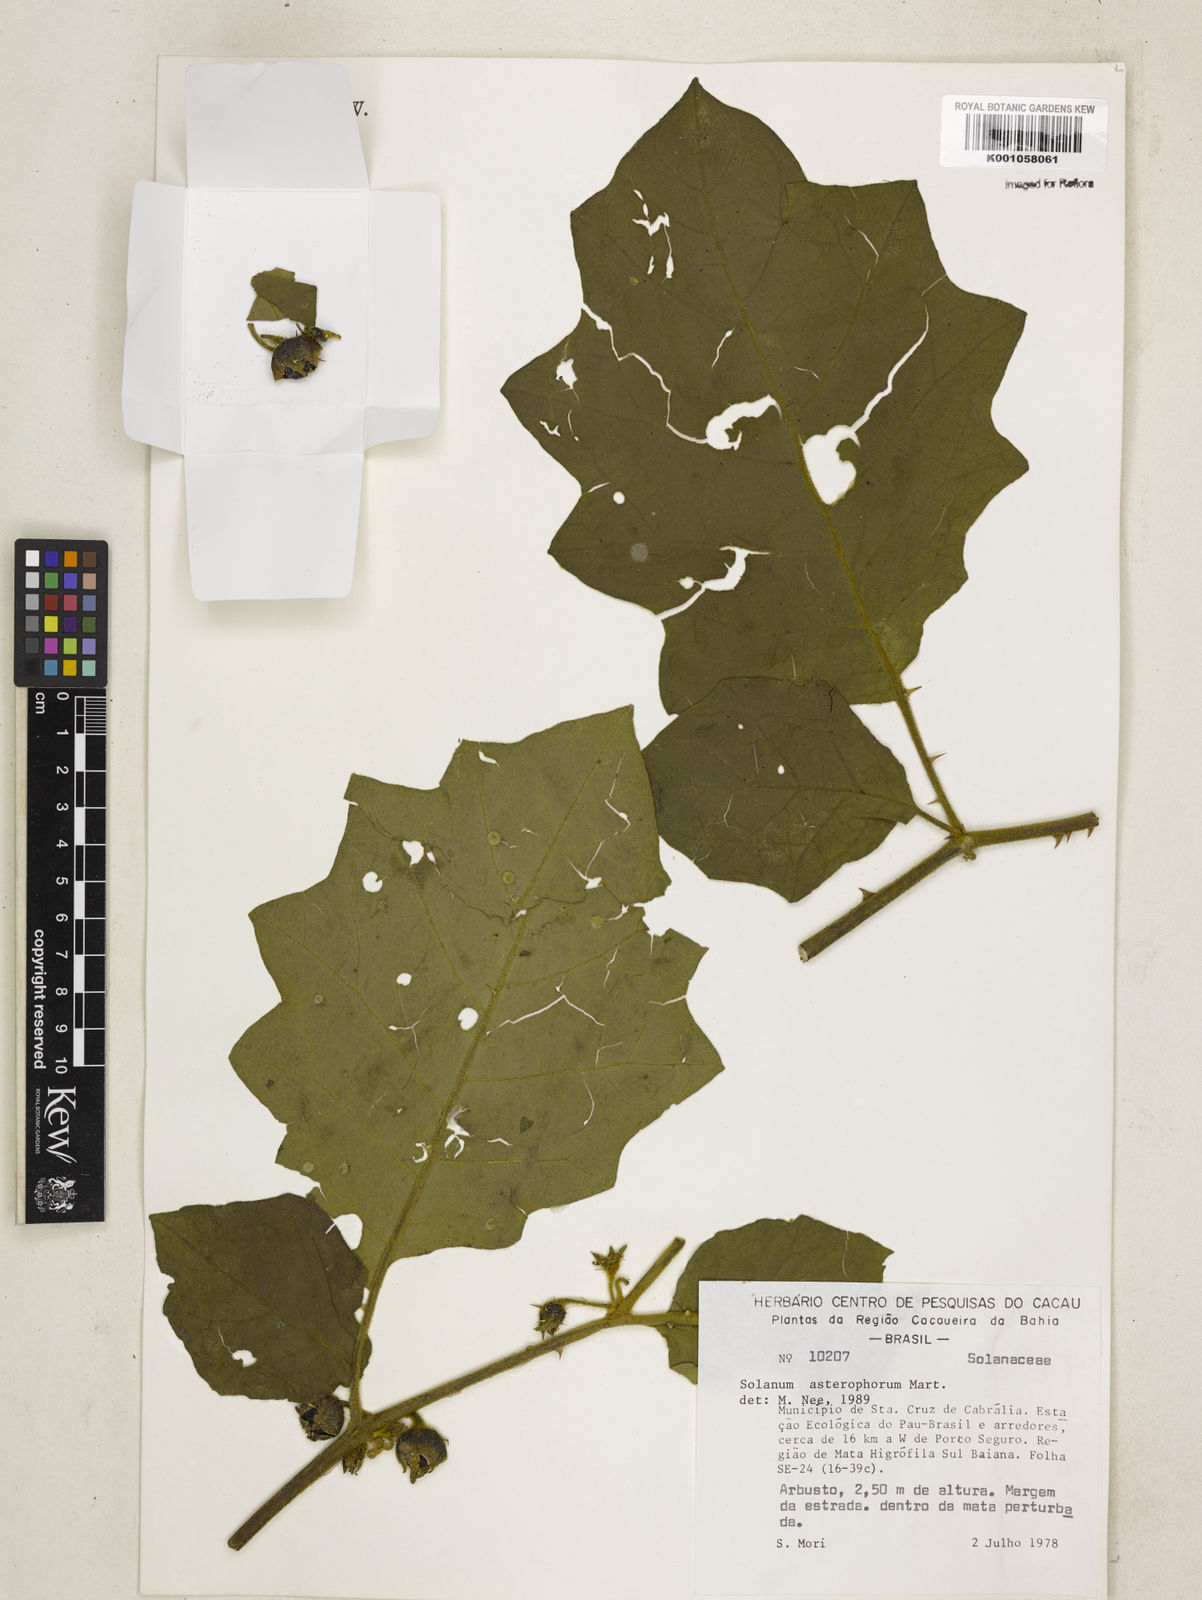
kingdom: Plantae
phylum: Tracheophyta
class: Magnoliopsida
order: Solanales
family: Solanaceae
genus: Solanum
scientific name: Solanum asterophorum
